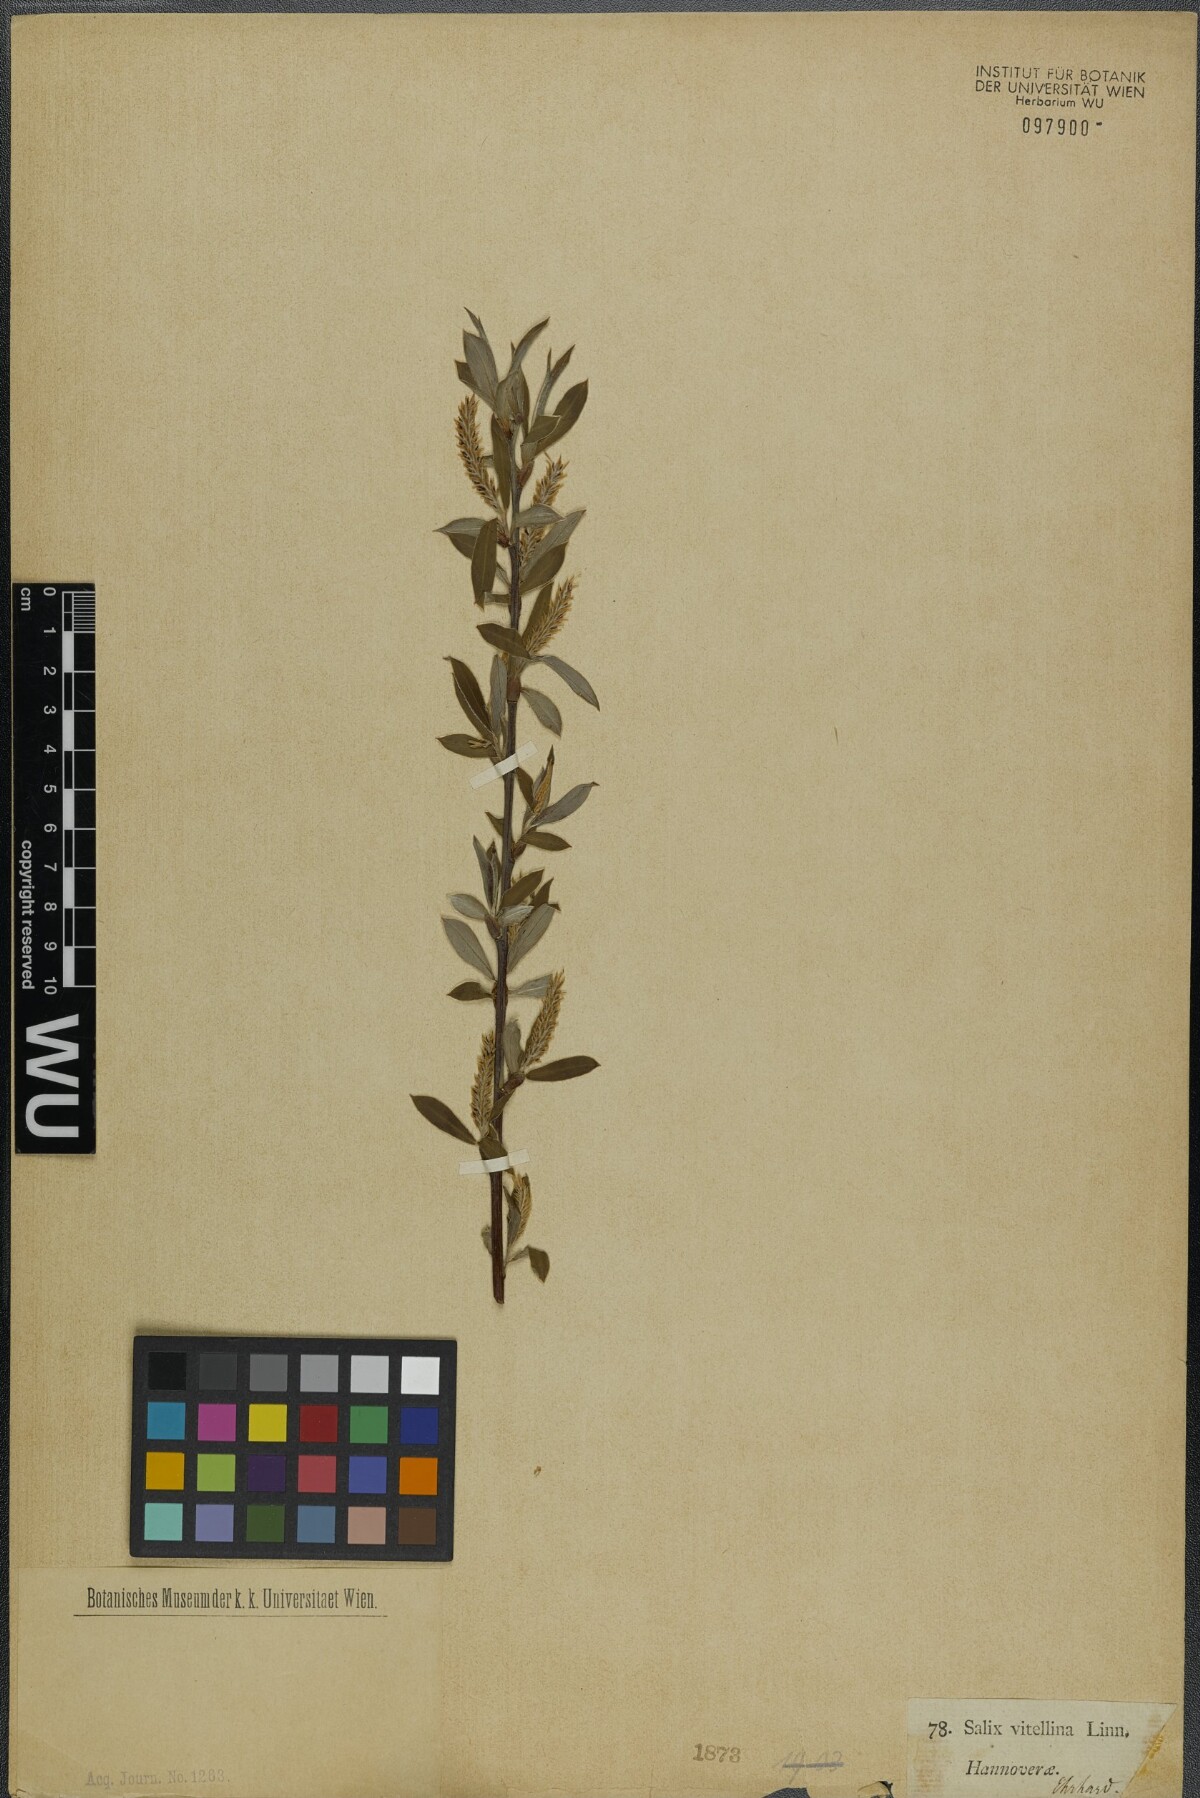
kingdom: Plantae
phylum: Tracheophyta
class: Magnoliopsida
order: Malpighiales
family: Salicaceae
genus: Salix
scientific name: Salix alba
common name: White willow
